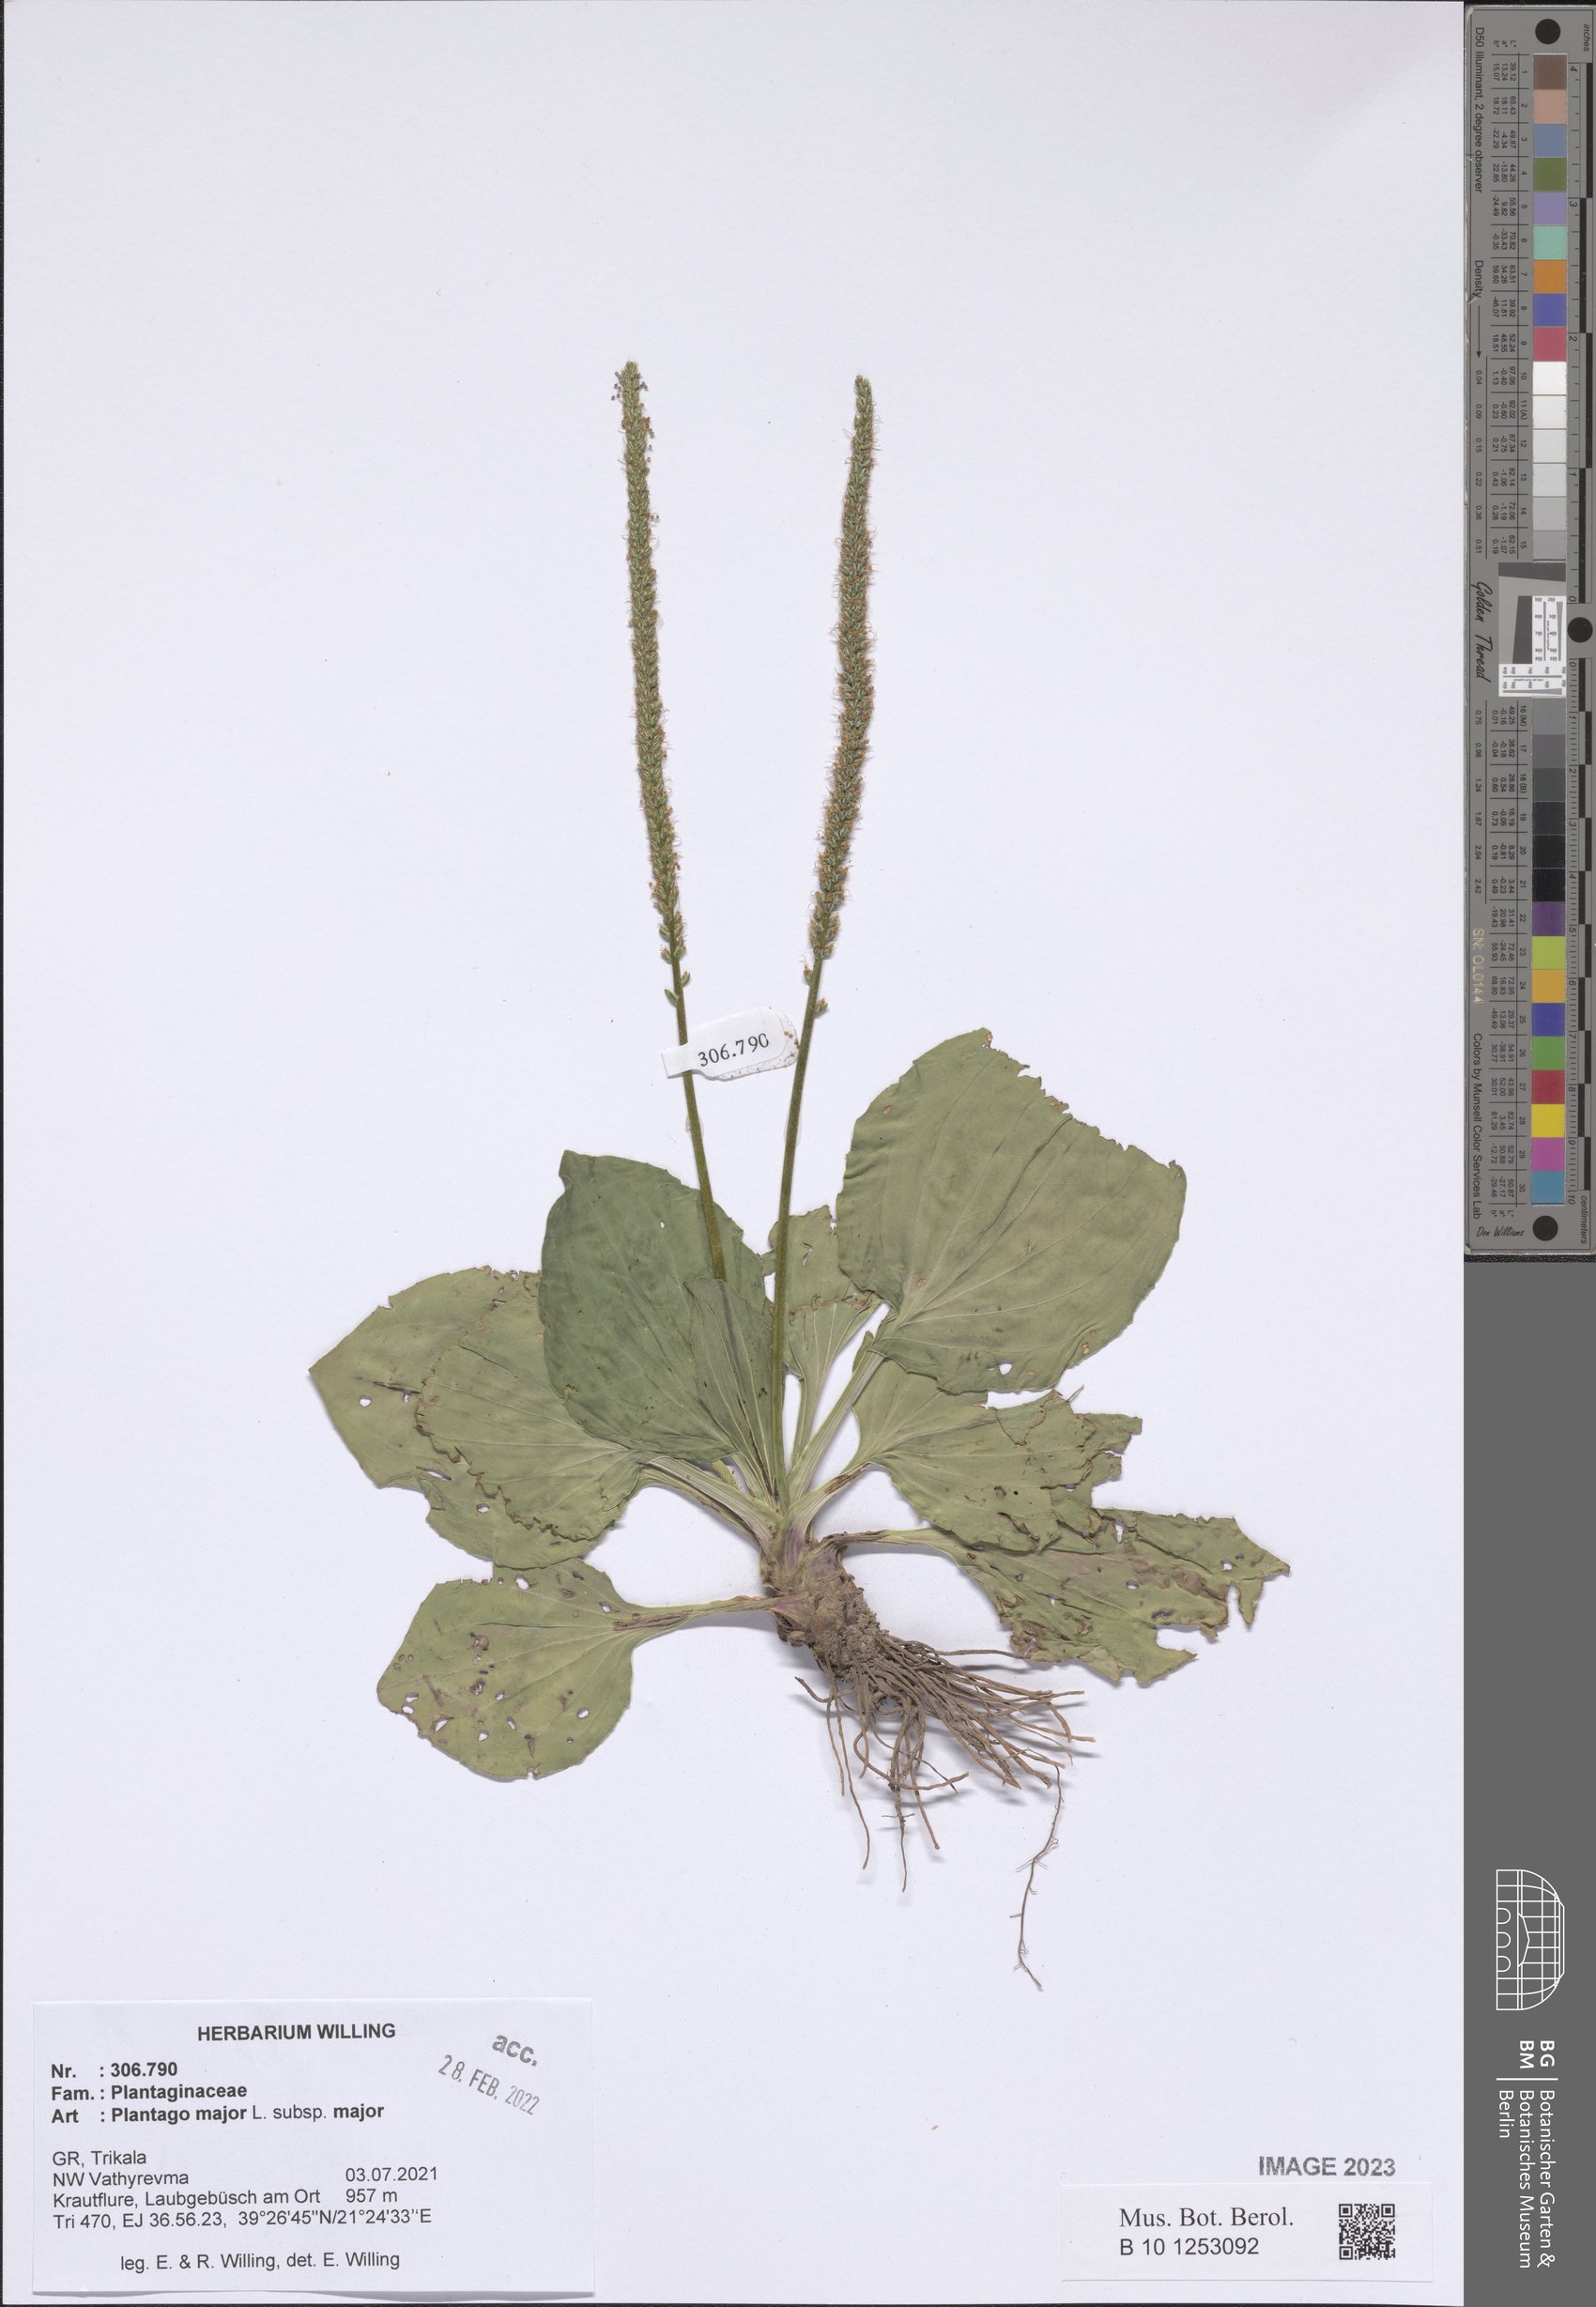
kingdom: Plantae
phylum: Tracheophyta
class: Magnoliopsida
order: Lamiales
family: Plantaginaceae
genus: Plantago
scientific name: Plantago major
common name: Common plantain
